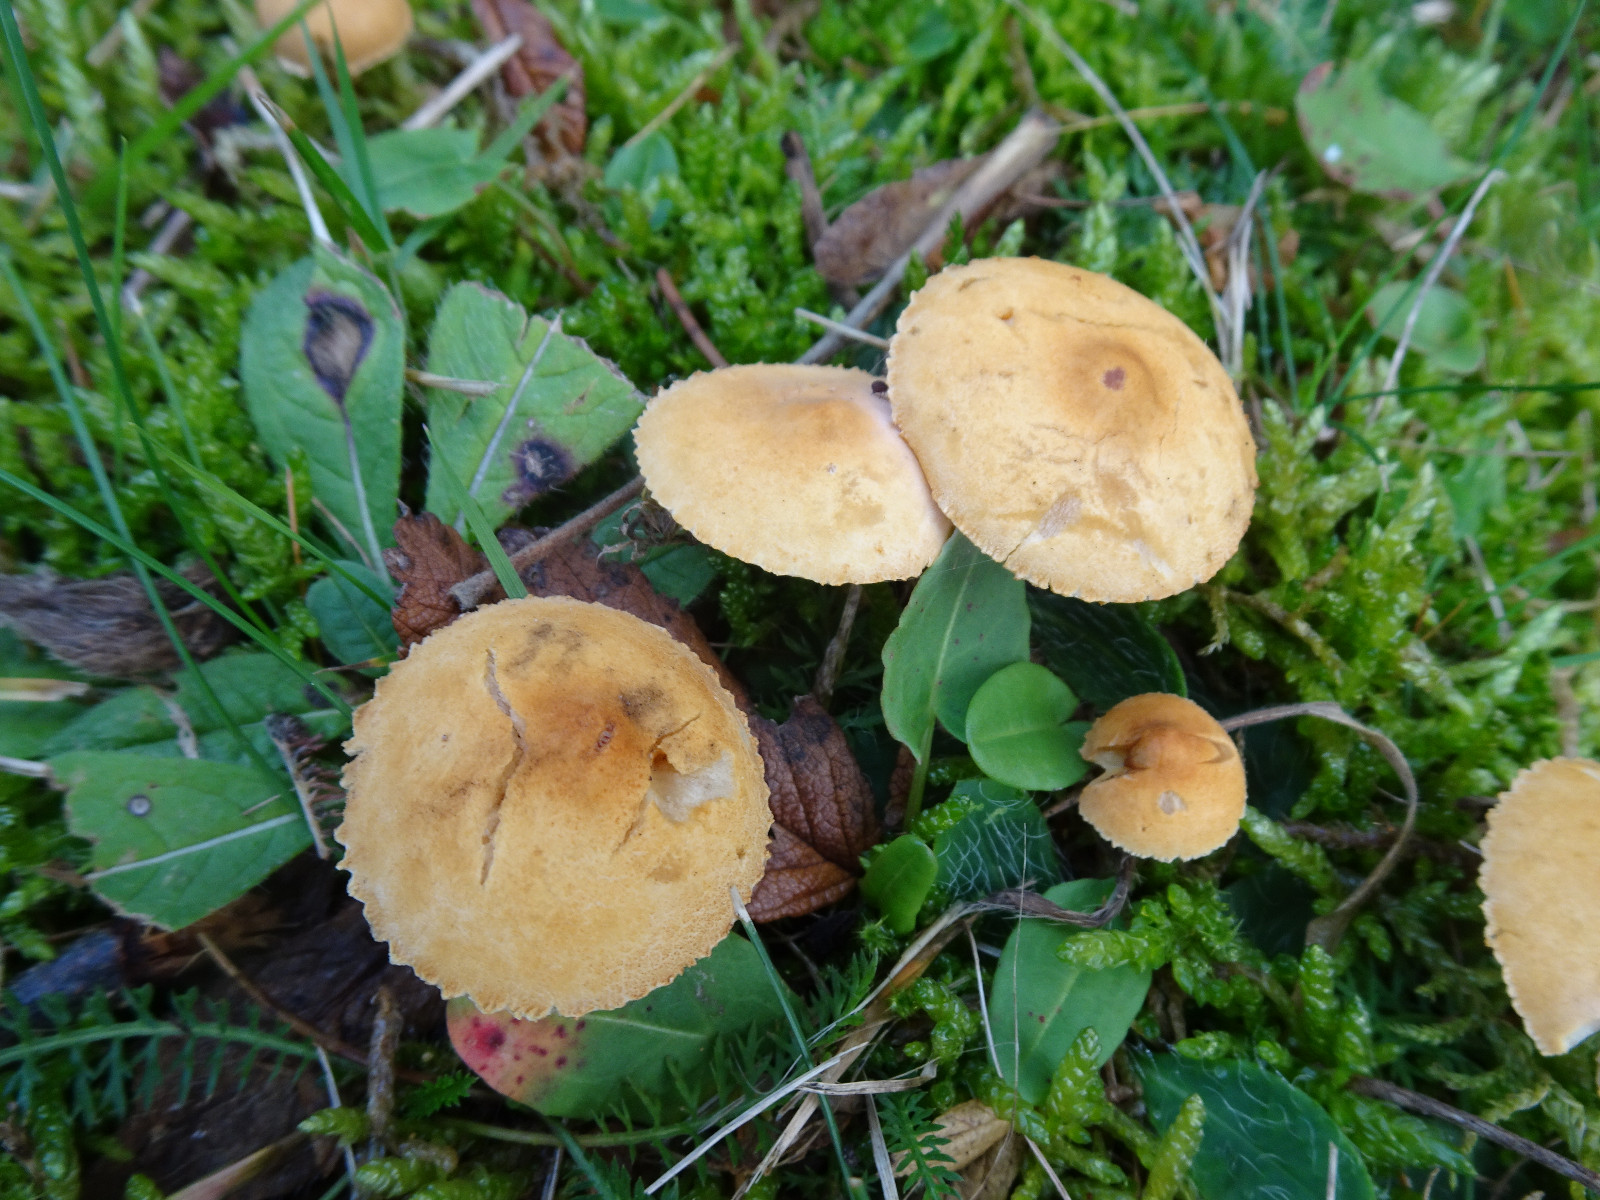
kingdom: Fungi
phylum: Basidiomycota
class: Agaricomycetes
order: Agaricales
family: Tricholomataceae
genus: Cystoderma
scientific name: Cystoderma amianthinum
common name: okkergul grynhat
